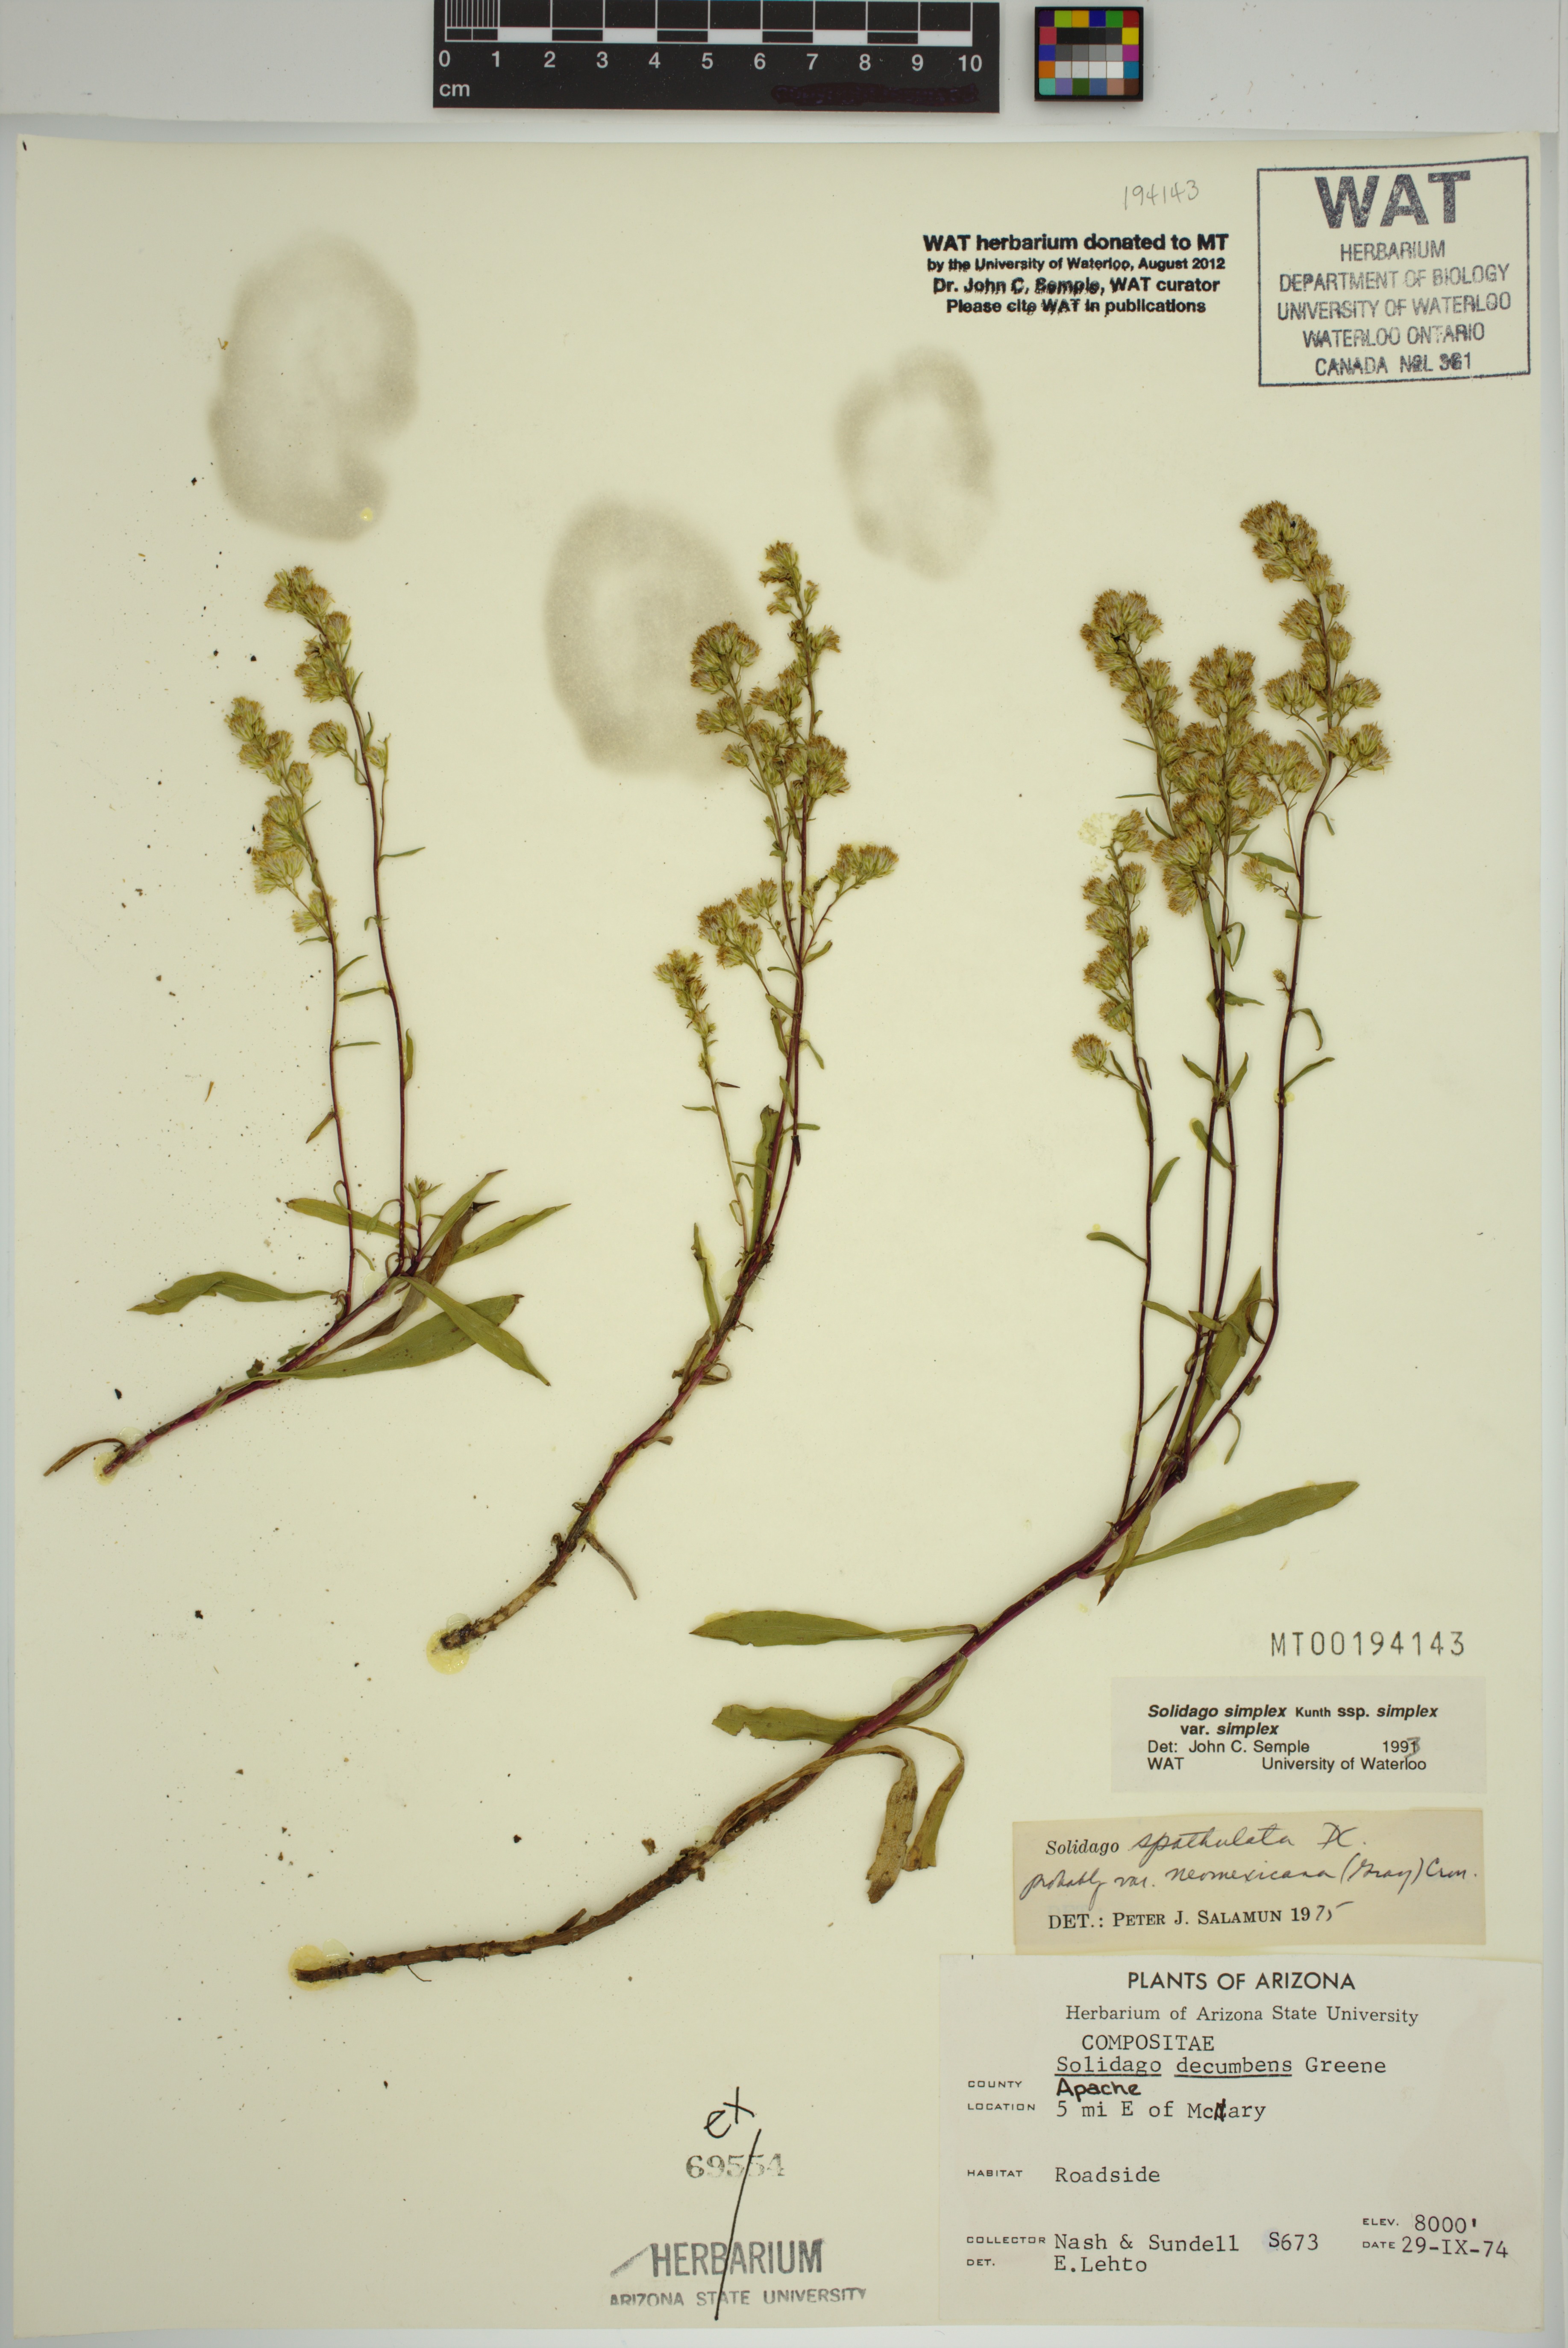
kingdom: Plantae
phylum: Tracheophyta
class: Magnoliopsida
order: Asterales
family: Asteraceae
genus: Solidago
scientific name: Solidago glutinosa
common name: Decumbent goldenrod
